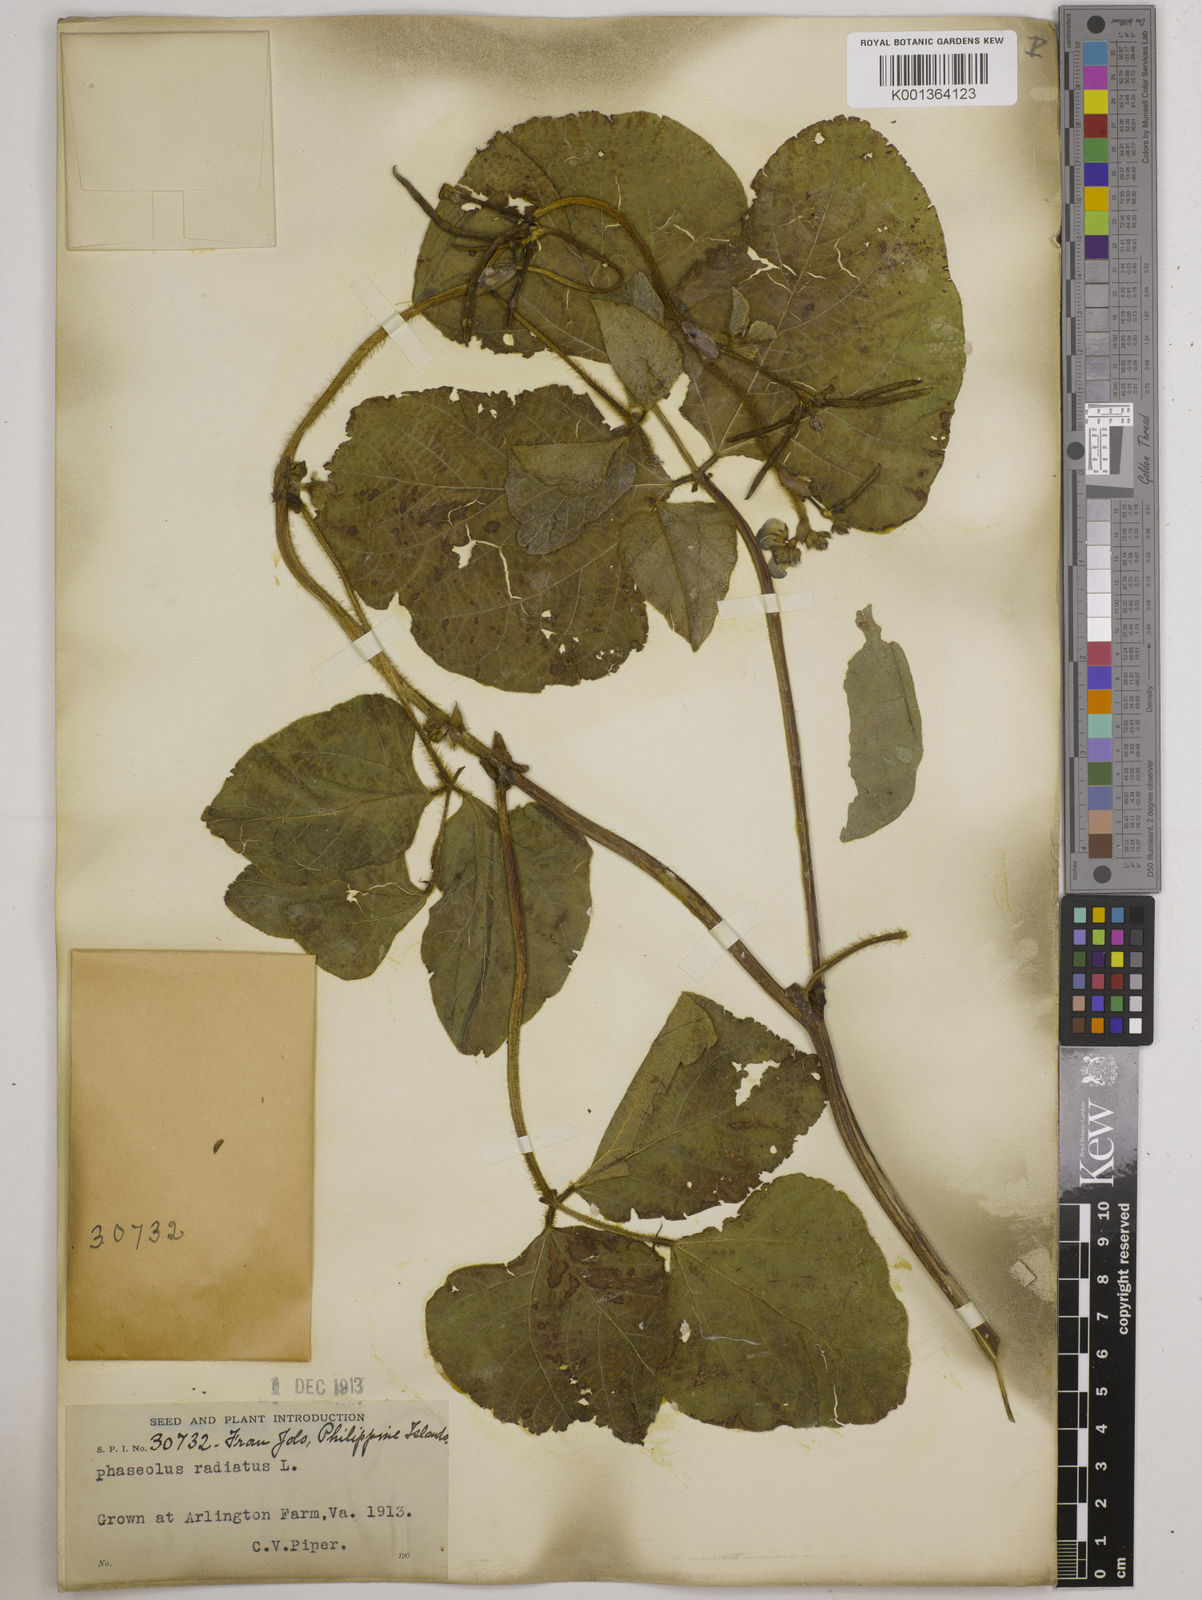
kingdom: Plantae
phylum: Tracheophyta
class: Magnoliopsida
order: Fabales
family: Fabaceae
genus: Vigna
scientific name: Vigna radiata
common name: Mung-bean
